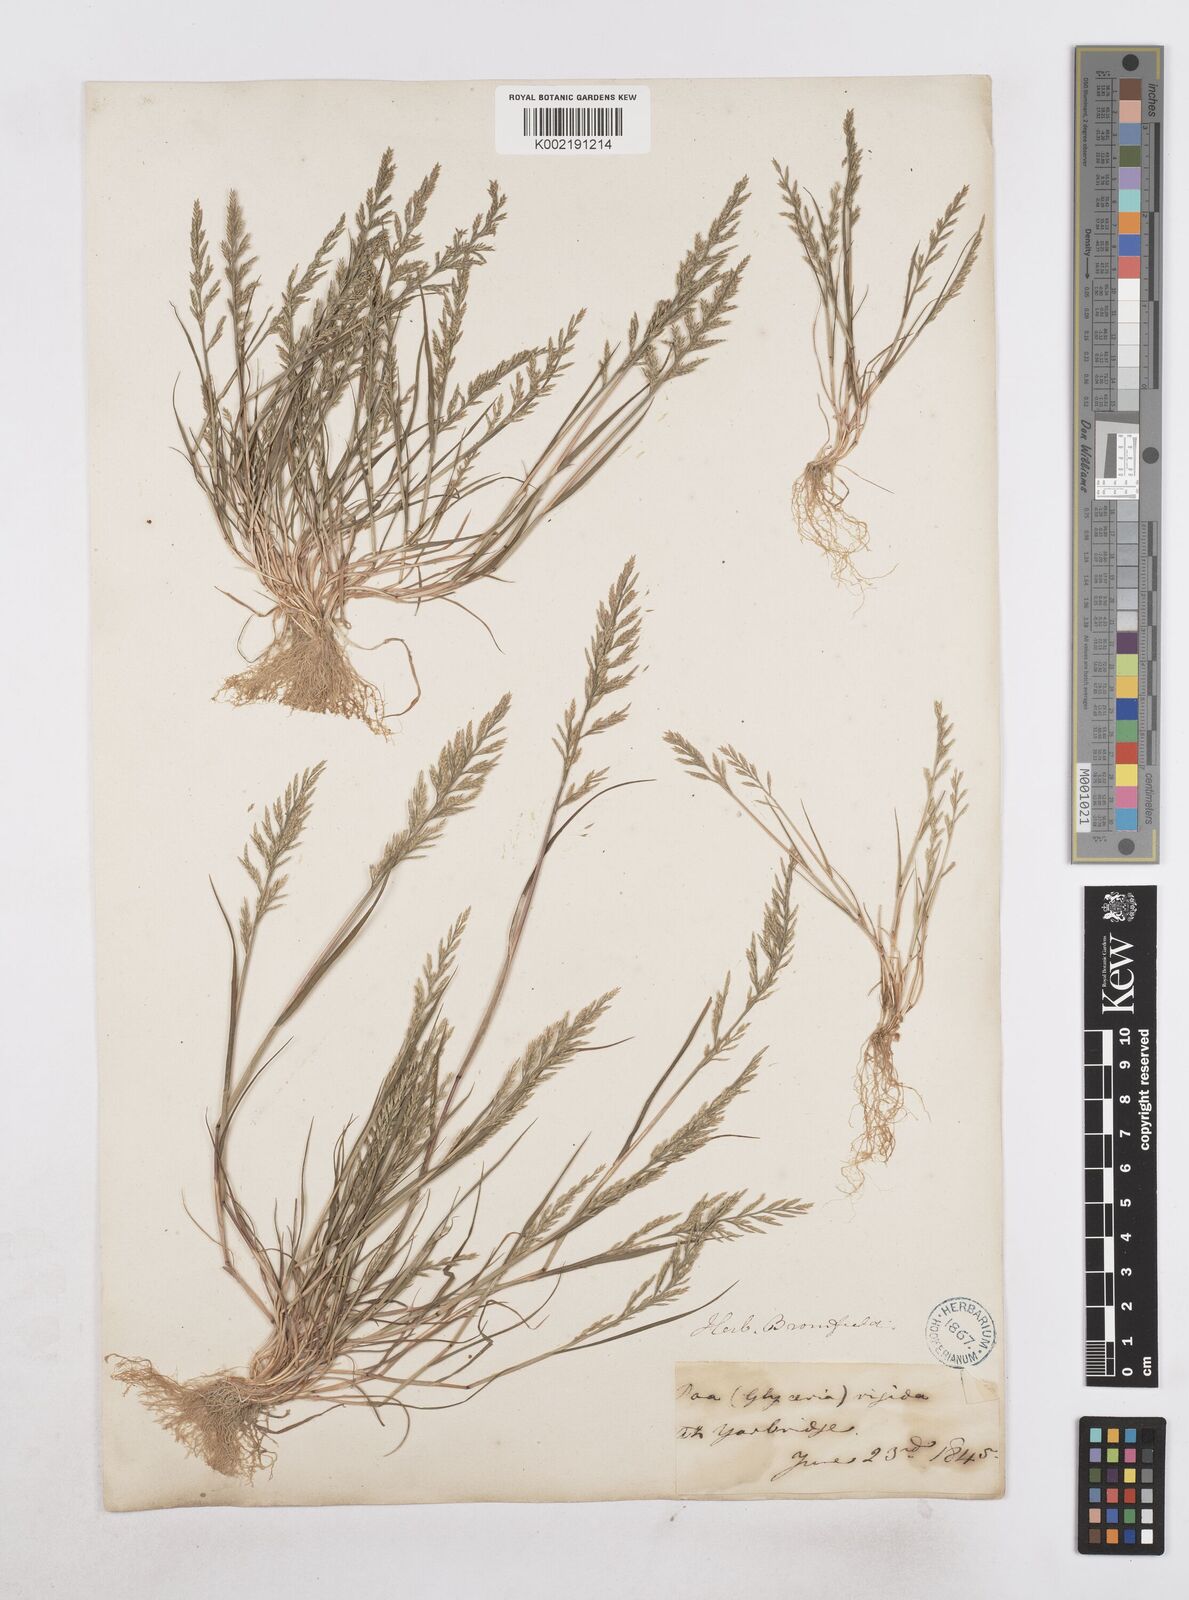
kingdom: Plantae
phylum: Tracheophyta
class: Liliopsida
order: Poales
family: Poaceae
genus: Catapodium
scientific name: Catapodium rigidum
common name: Fern-grass
